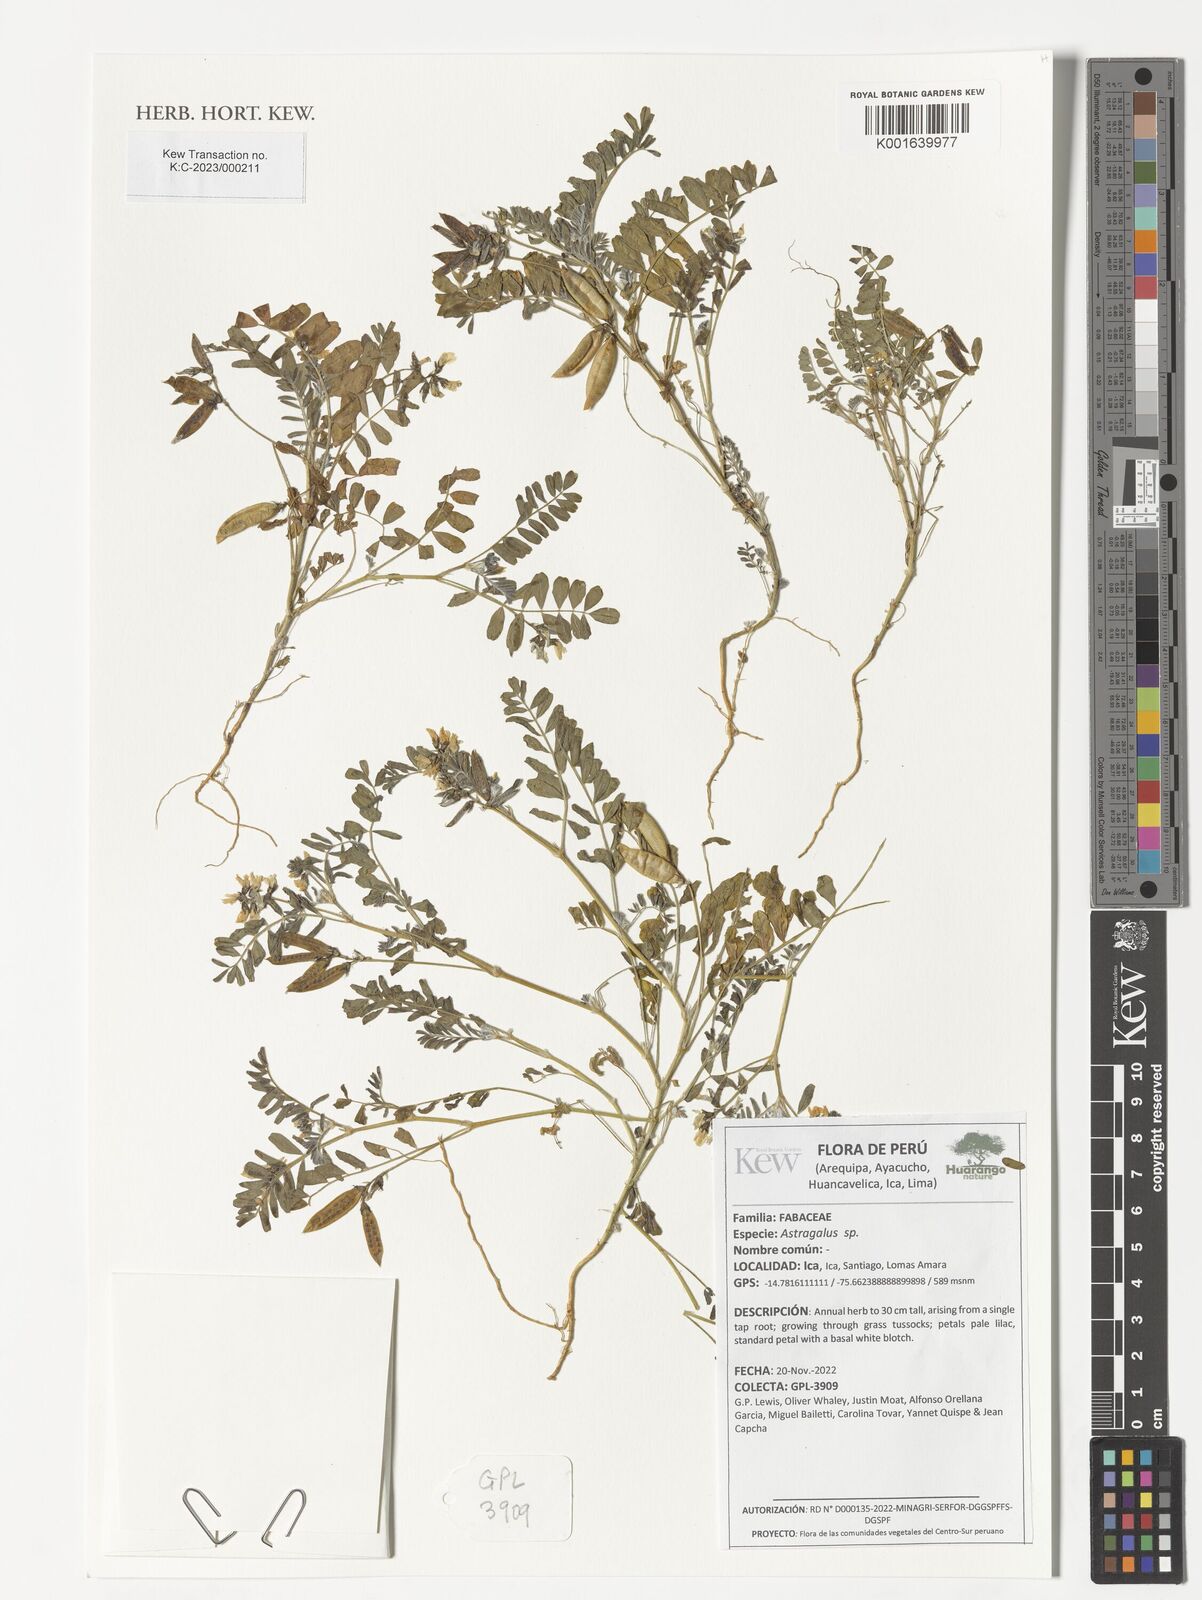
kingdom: Plantae
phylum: Tracheophyta
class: Magnoliopsida
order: Fabales
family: Fabaceae
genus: Astragalus
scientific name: Astragalus
